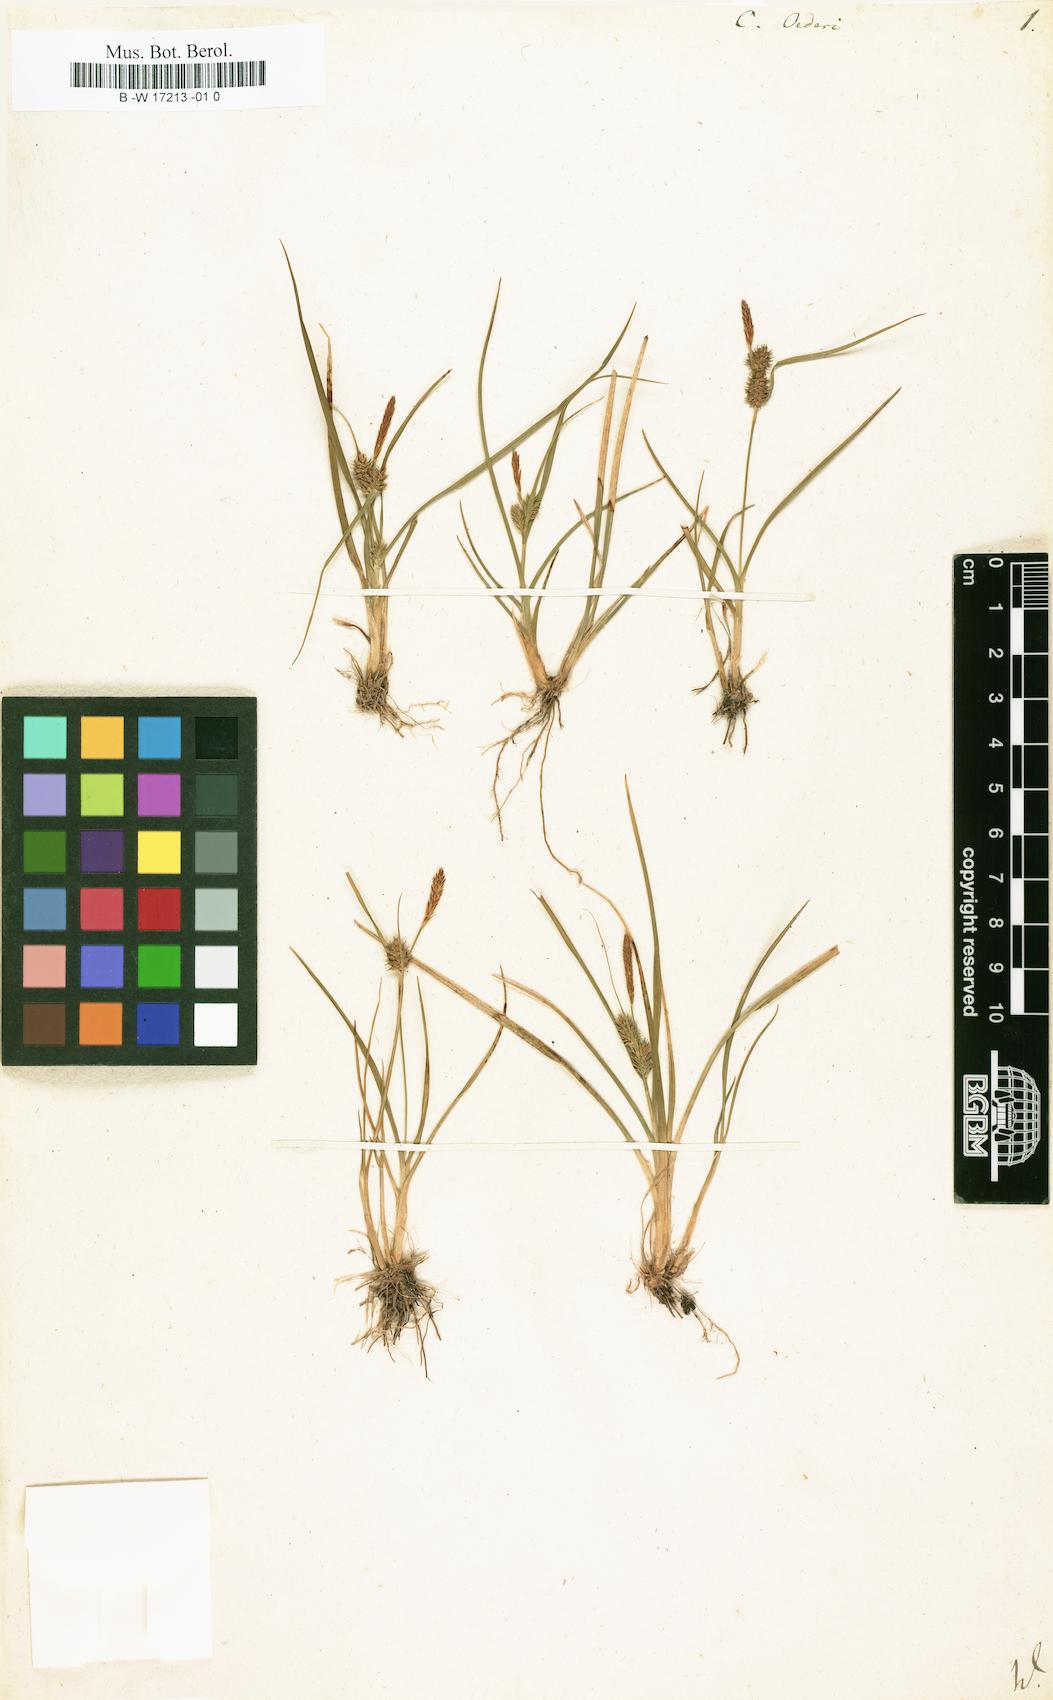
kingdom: Plantae
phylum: Tracheophyta
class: Liliopsida
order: Poales
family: Cyperaceae
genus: Carex
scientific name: Carex oederi
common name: Common & small-fruited yellow-sedge
